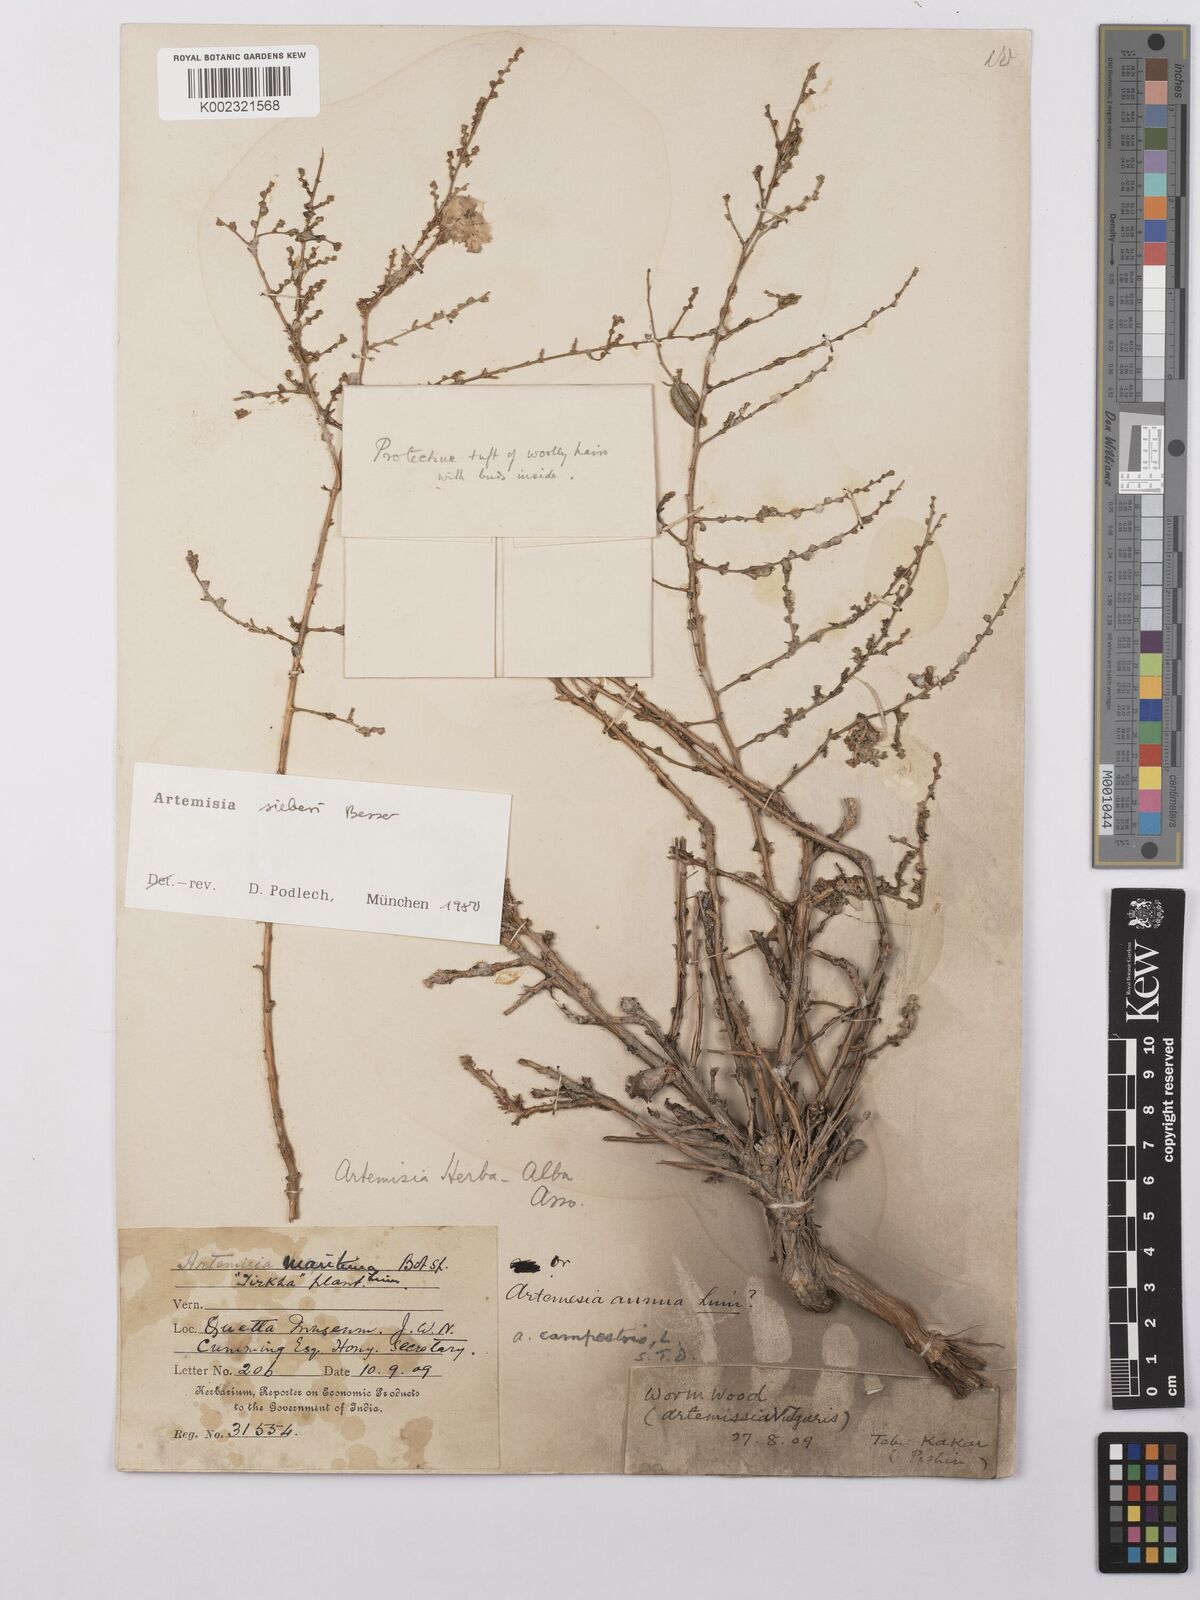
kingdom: Plantae
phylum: Tracheophyta
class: Magnoliopsida
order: Asterales
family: Asteraceae
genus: Artemisia
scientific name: Artemisia sieberi
